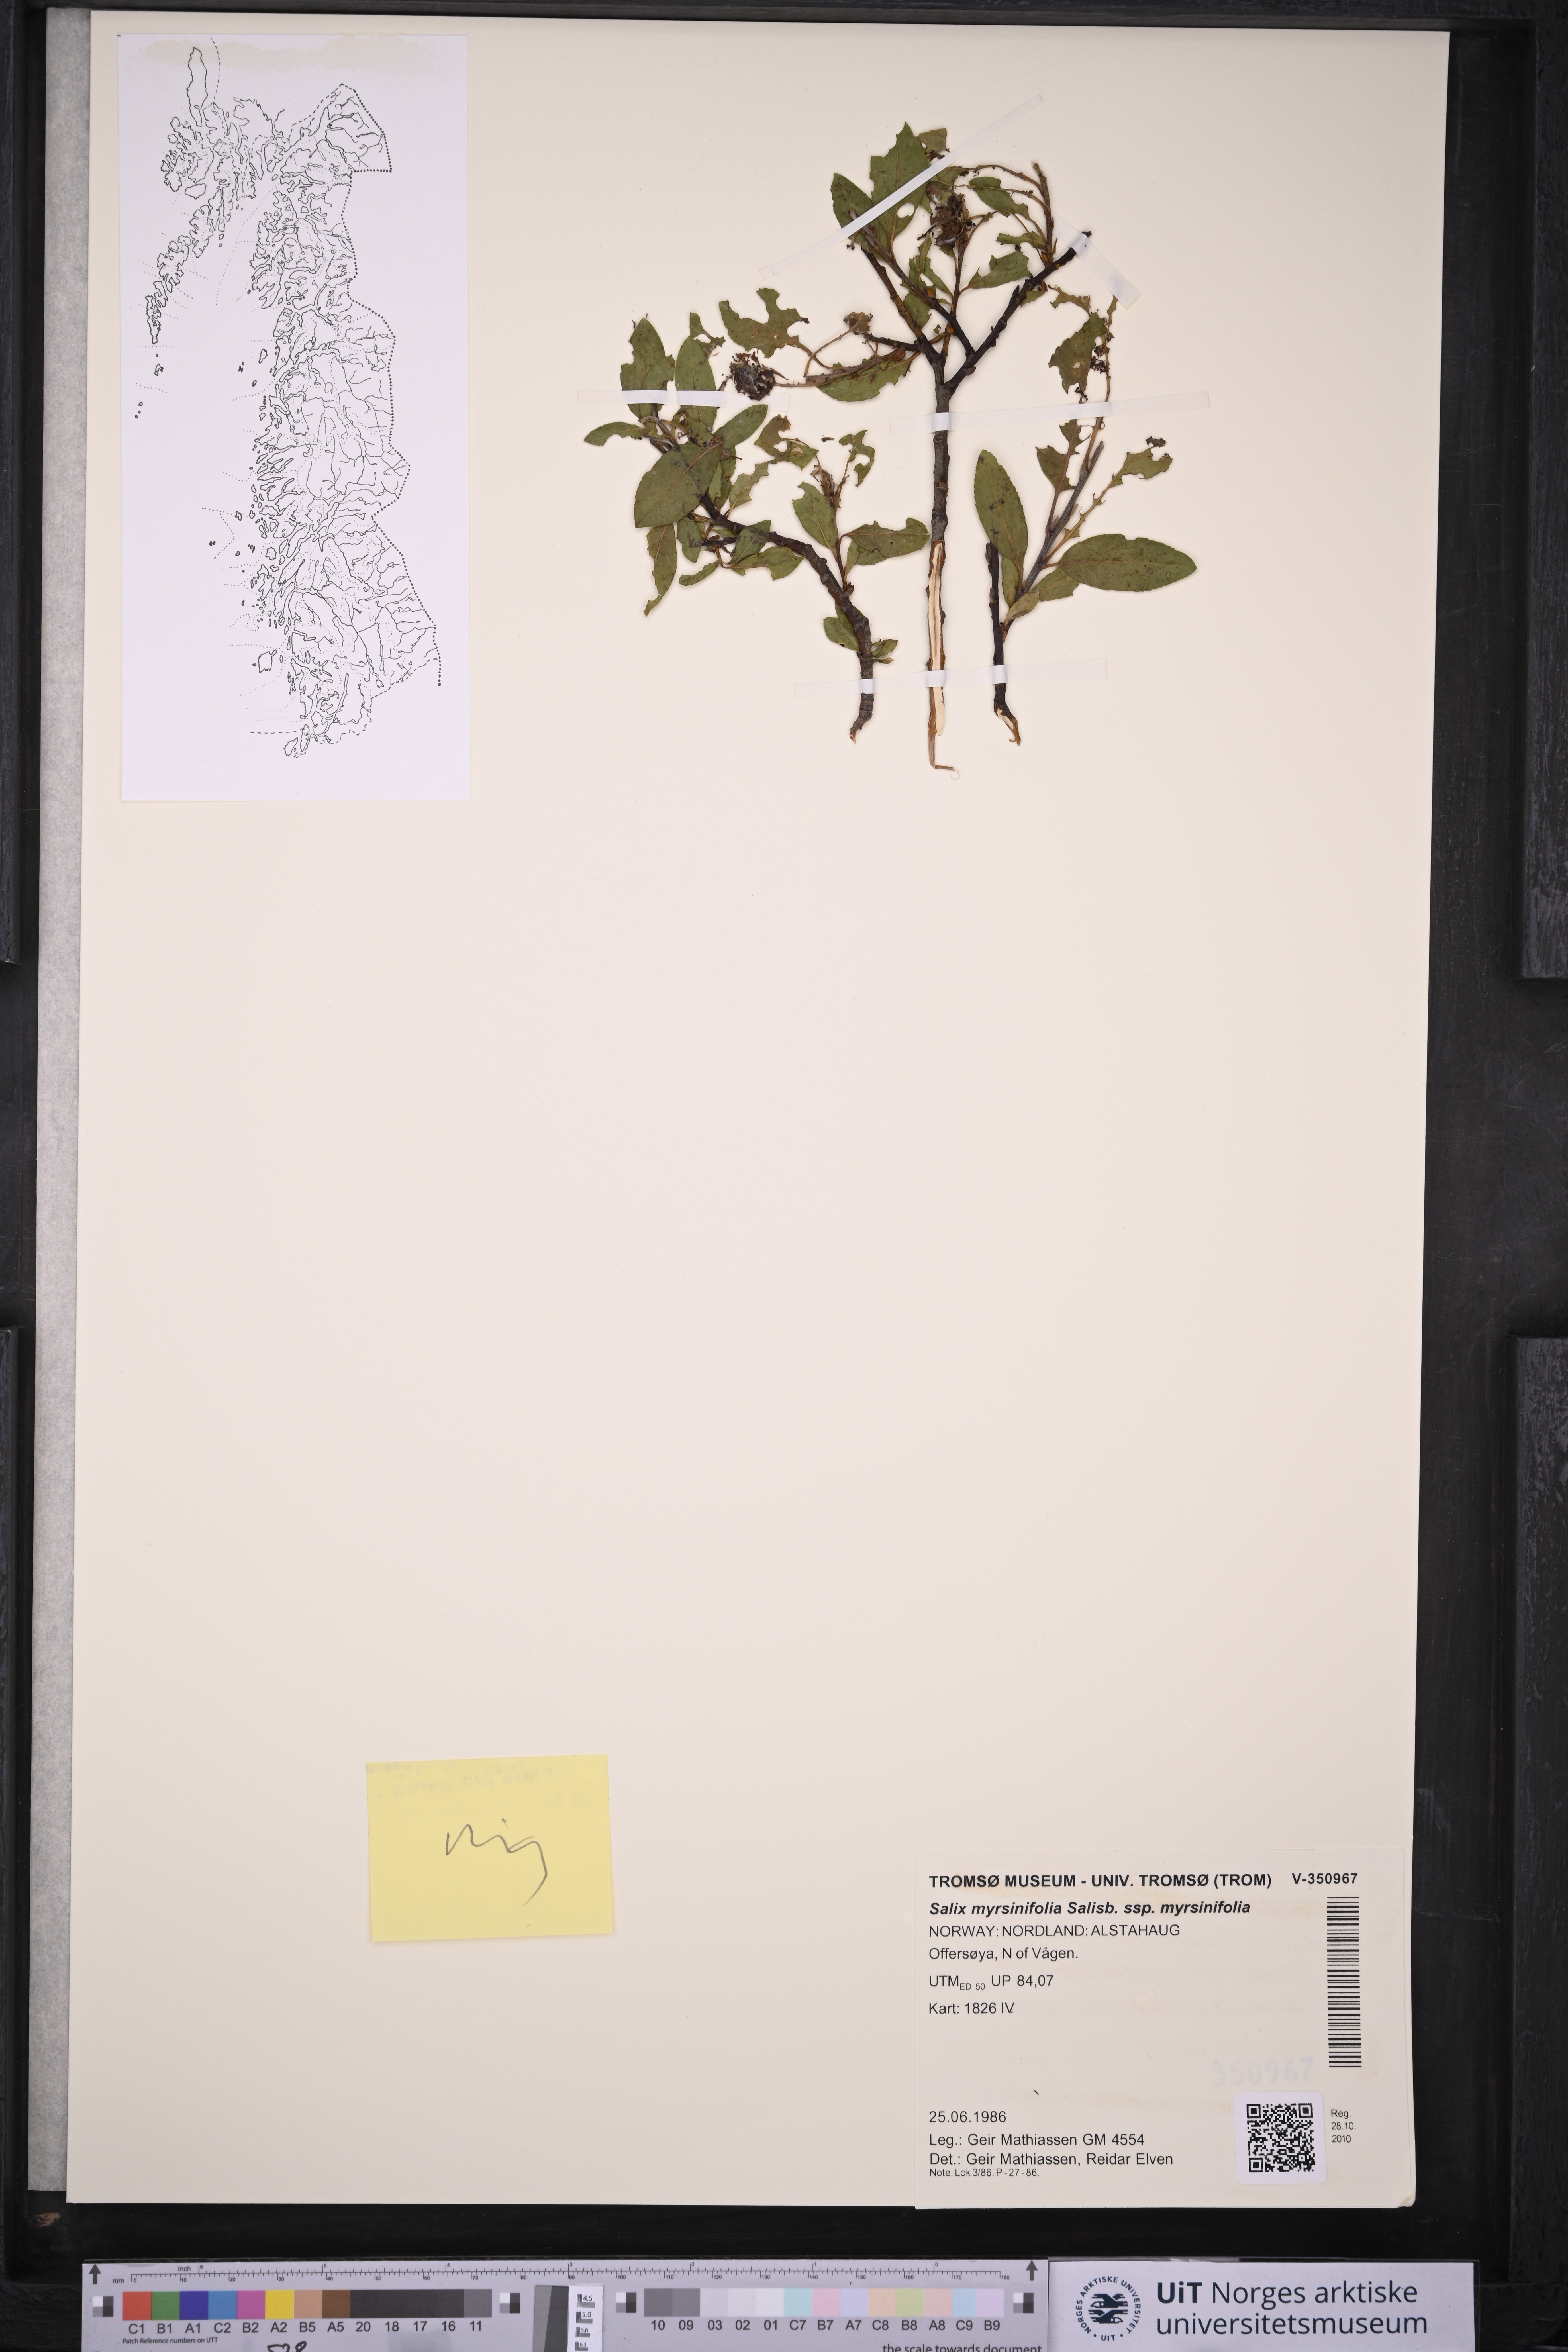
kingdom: Plantae
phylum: Tracheophyta
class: Magnoliopsida
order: Malpighiales
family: Salicaceae
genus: Salix
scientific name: Salix myrsinifolia
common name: Dark-leaved willow
